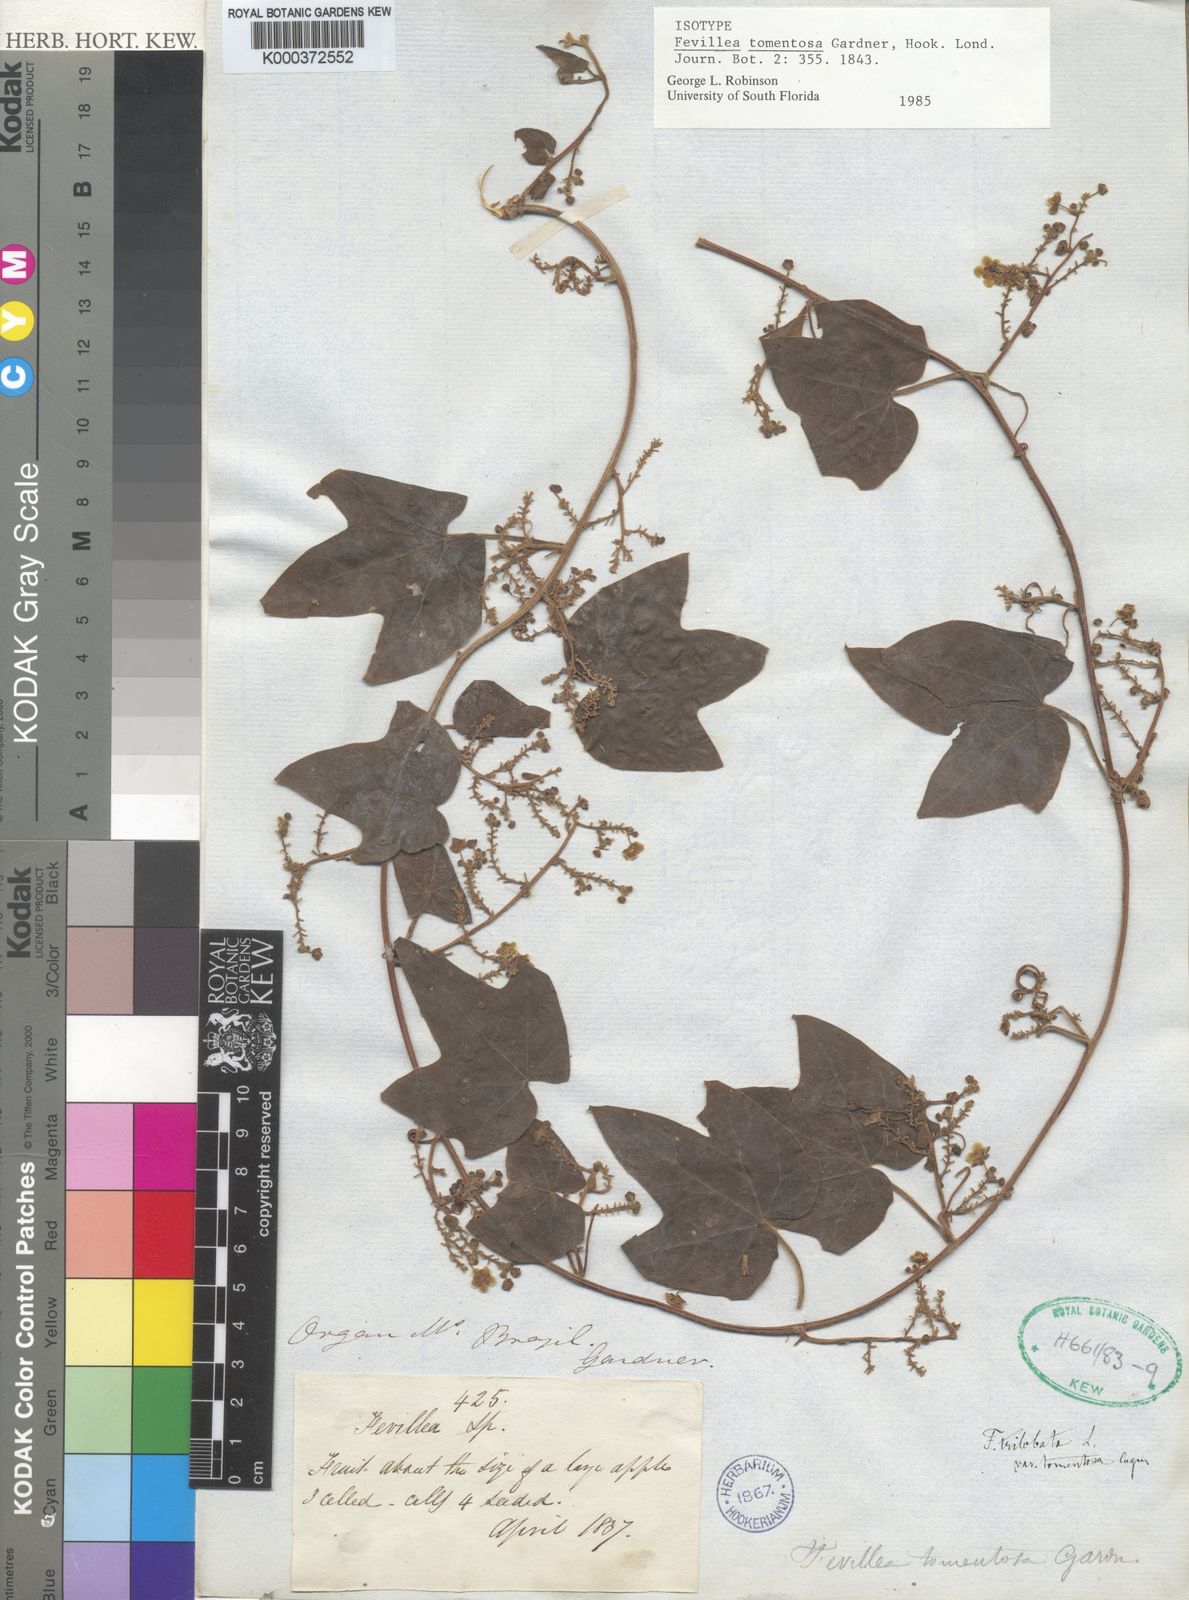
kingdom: Plantae
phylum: Tracheophyta
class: Magnoliopsida
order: Cucurbitales
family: Cucurbitaceae
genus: Fevillea
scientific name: Fevillea trilobata
